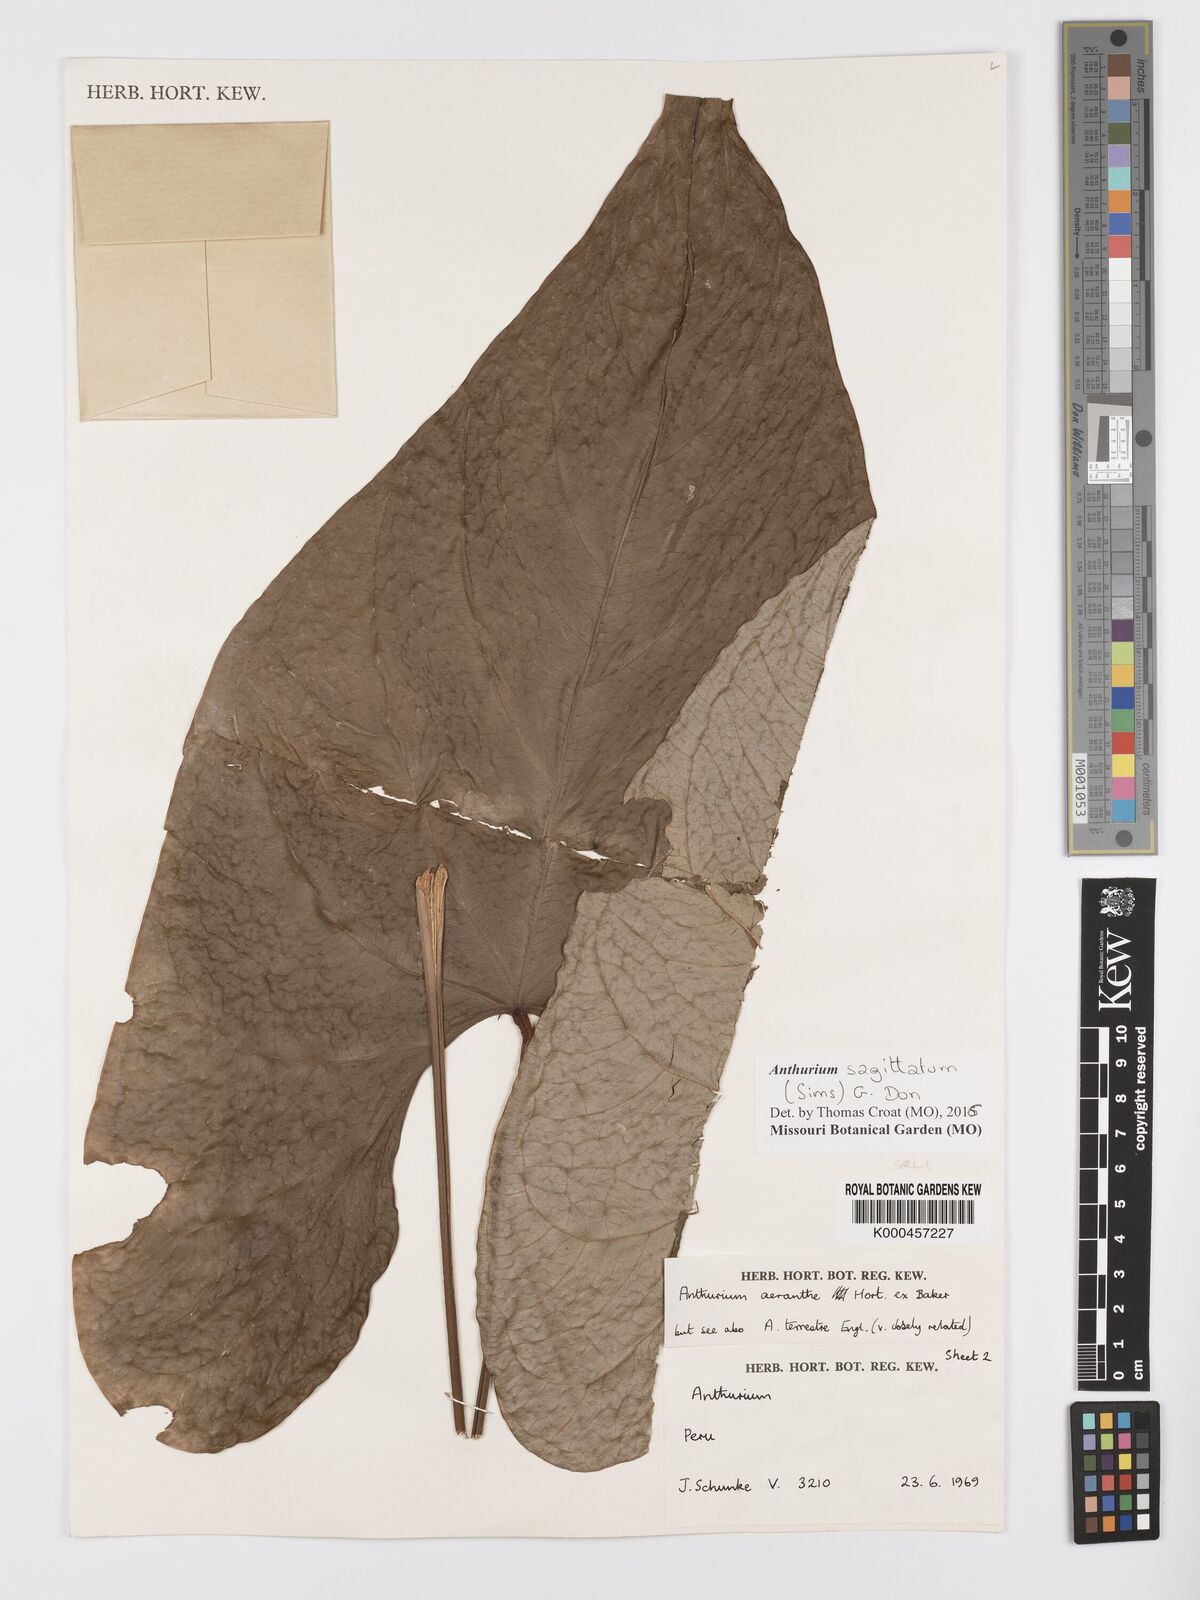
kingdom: Plantae
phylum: Tracheophyta
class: Liliopsida
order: Alismatales
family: Araceae
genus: Anthurium
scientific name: Anthurium sagittatum
